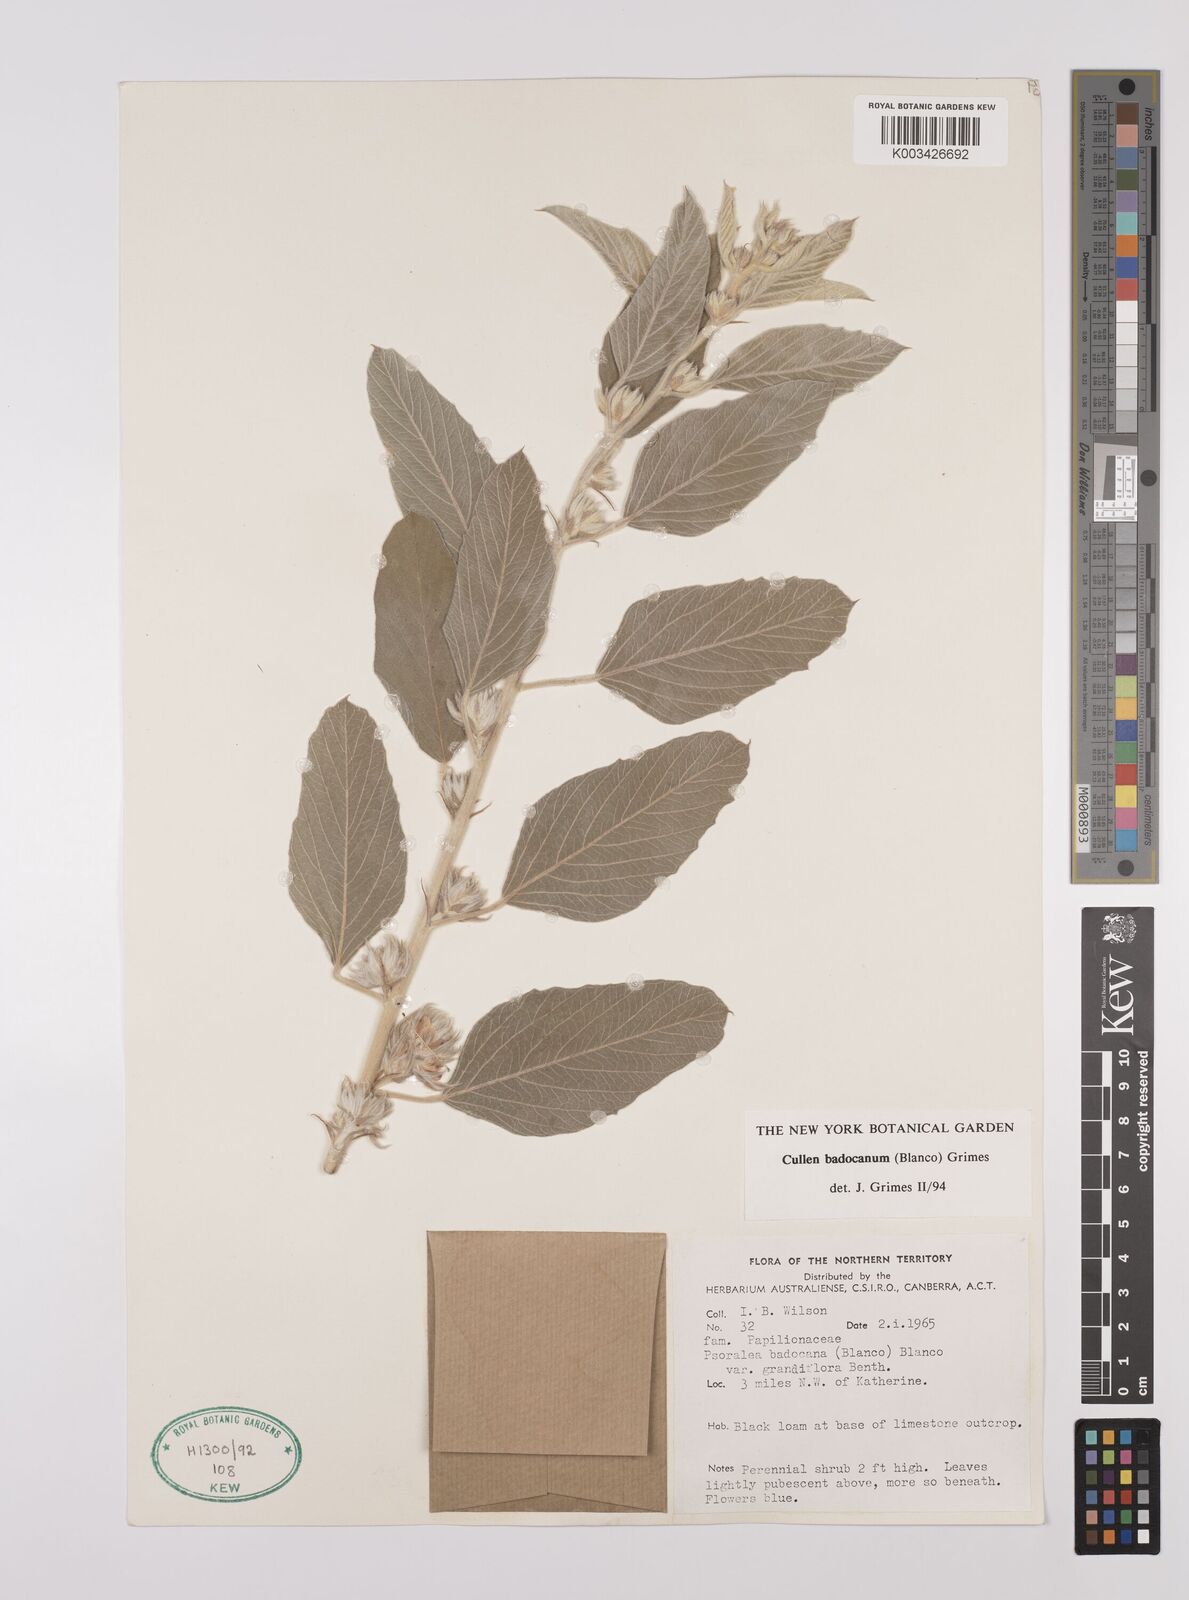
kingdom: Plantae
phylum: Tracheophyta
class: Magnoliopsida
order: Fabales
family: Fabaceae
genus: Cullen
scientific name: Cullen badocanum
